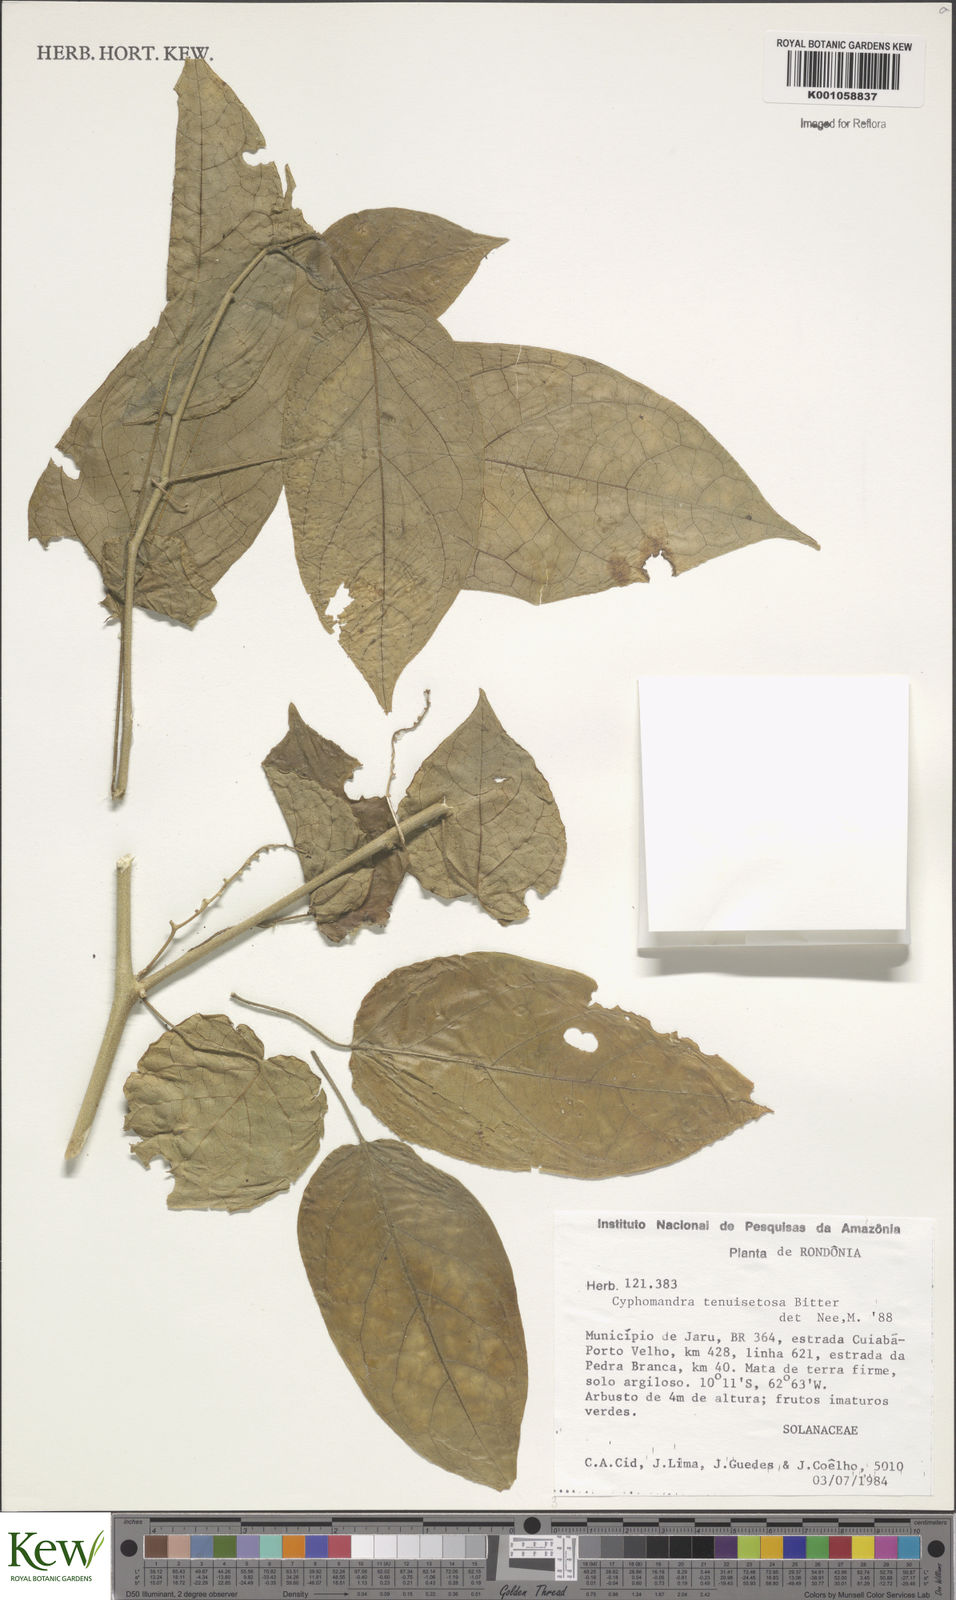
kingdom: Plantae
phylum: Tracheophyta
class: Magnoliopsida
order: Solanales
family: Solanaceae
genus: Solanum
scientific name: Solanum tenuisetosum
